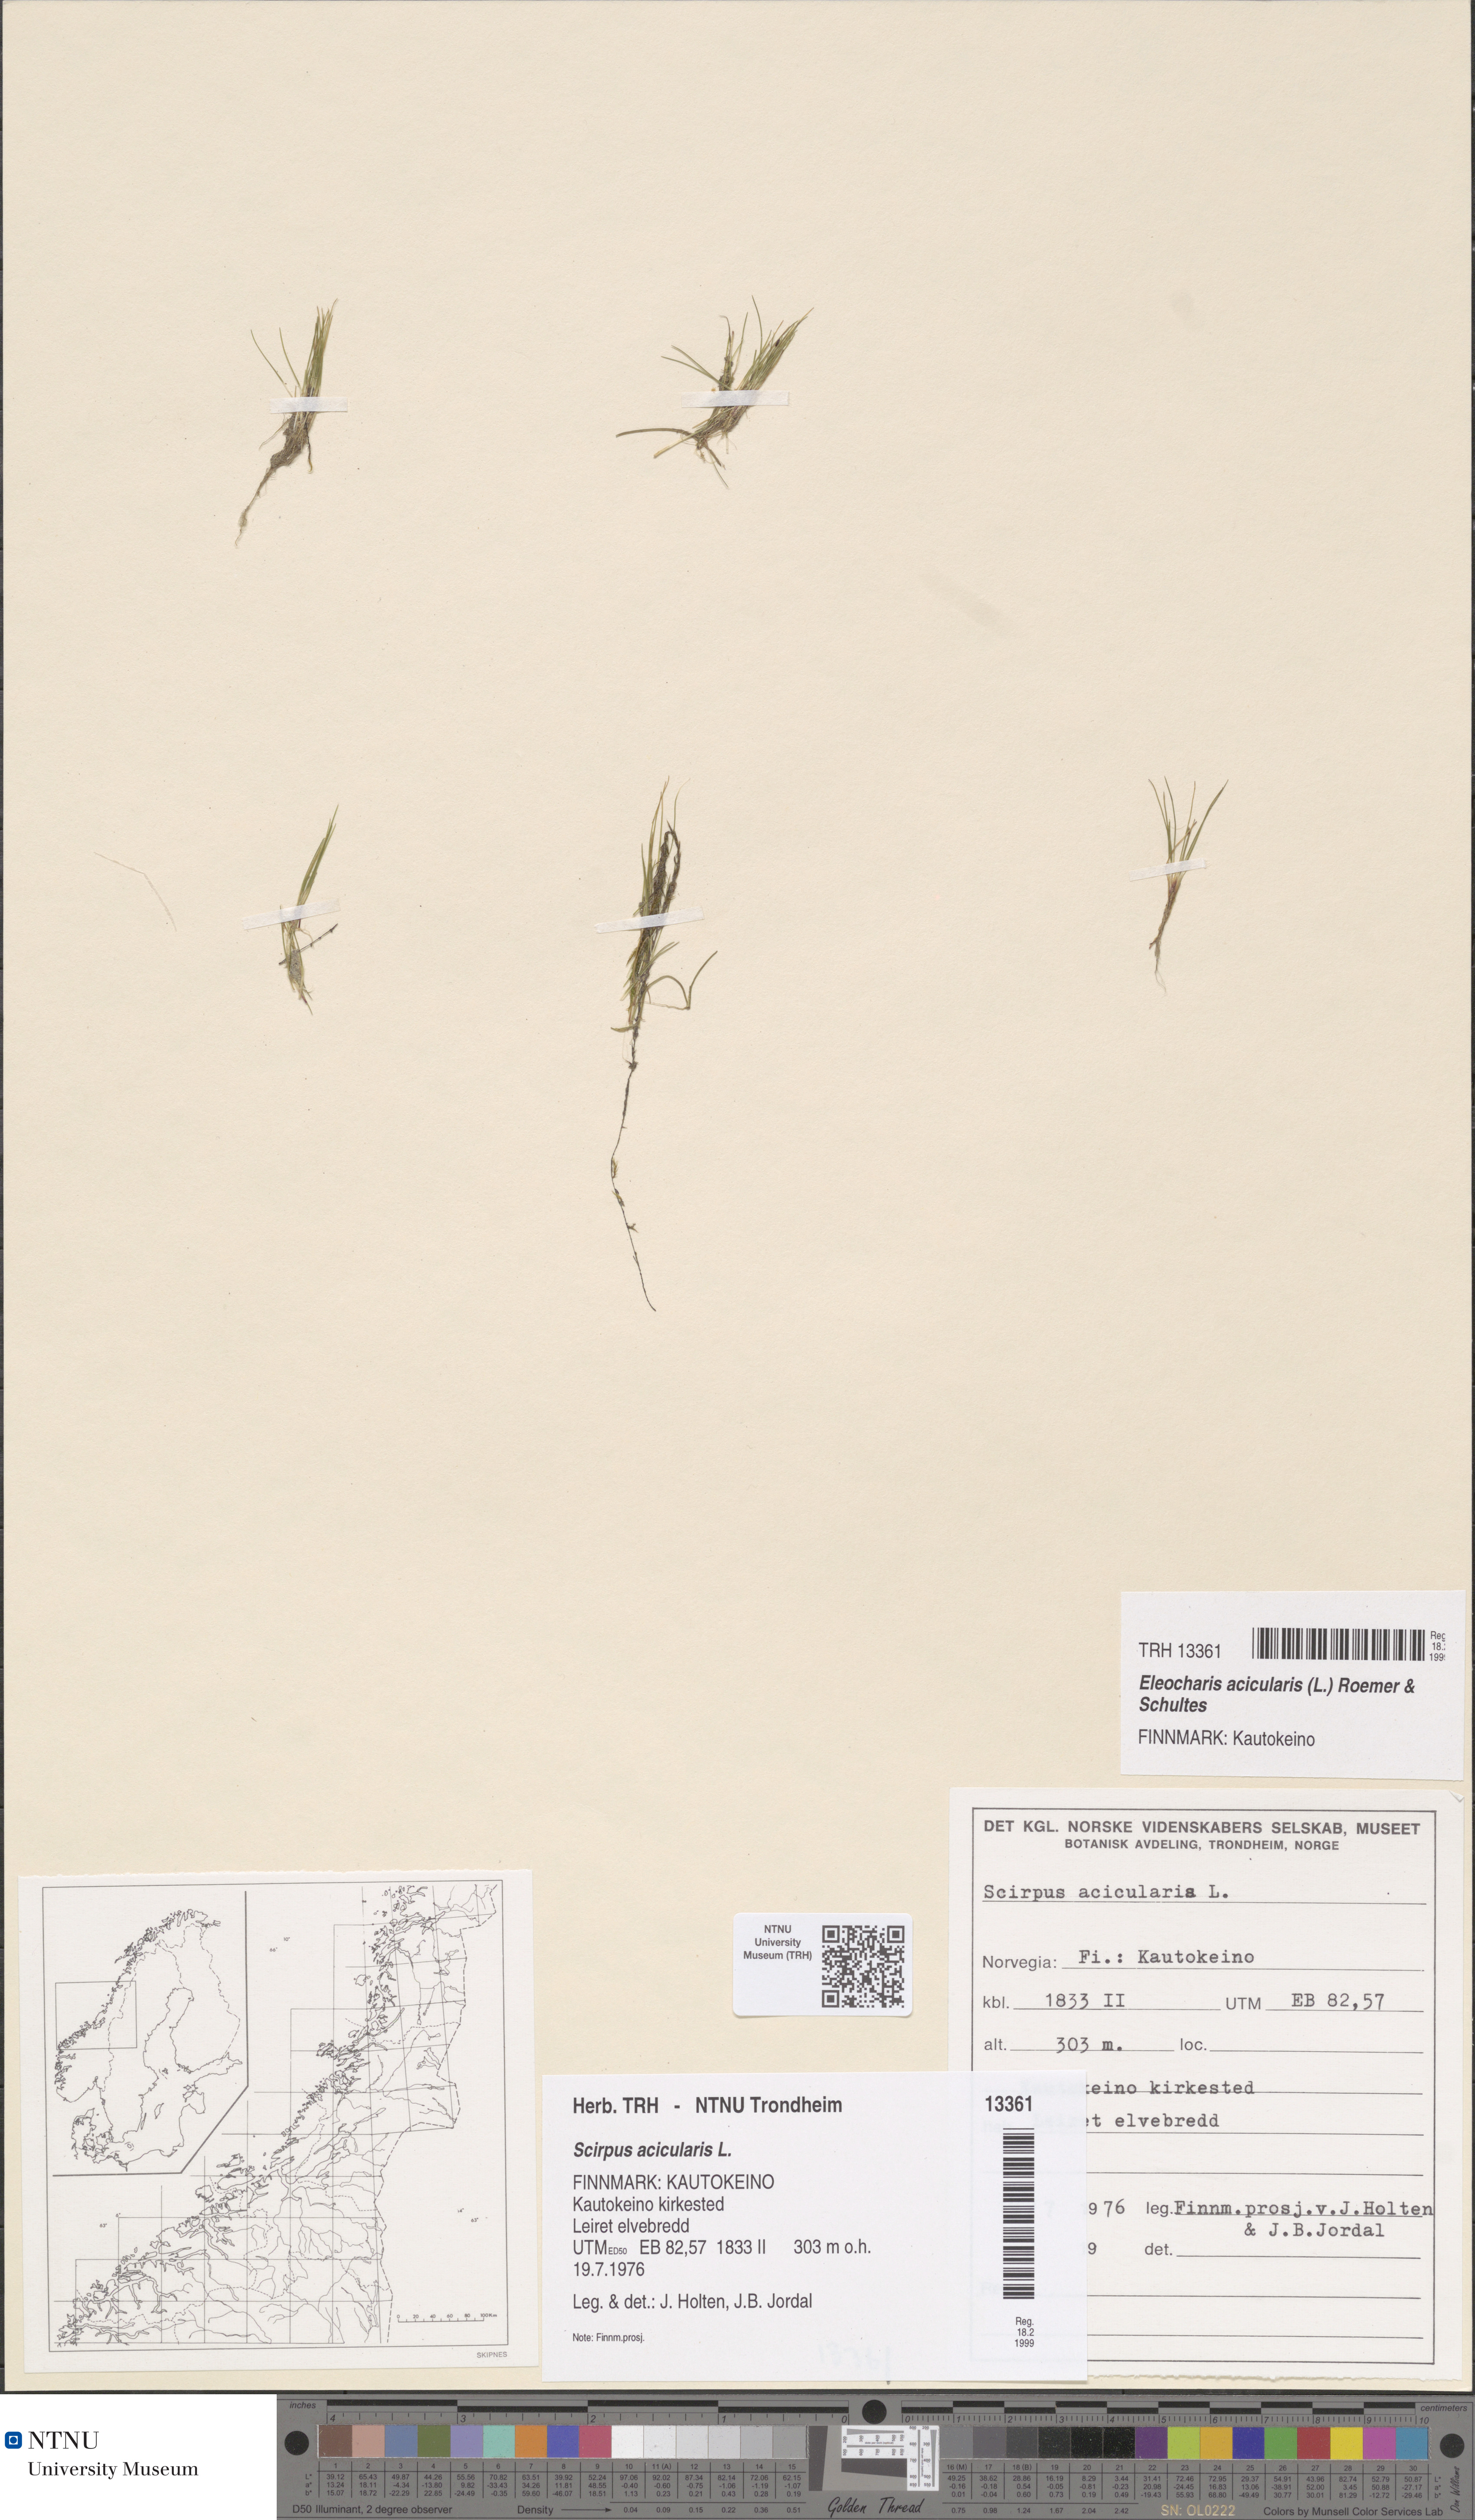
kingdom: Plantae
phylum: Tracheophyta
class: Liliopsida
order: Poales
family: Cyperaceae
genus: Eleocharis
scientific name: Eleocharis acicularis
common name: Needle spike-rush
